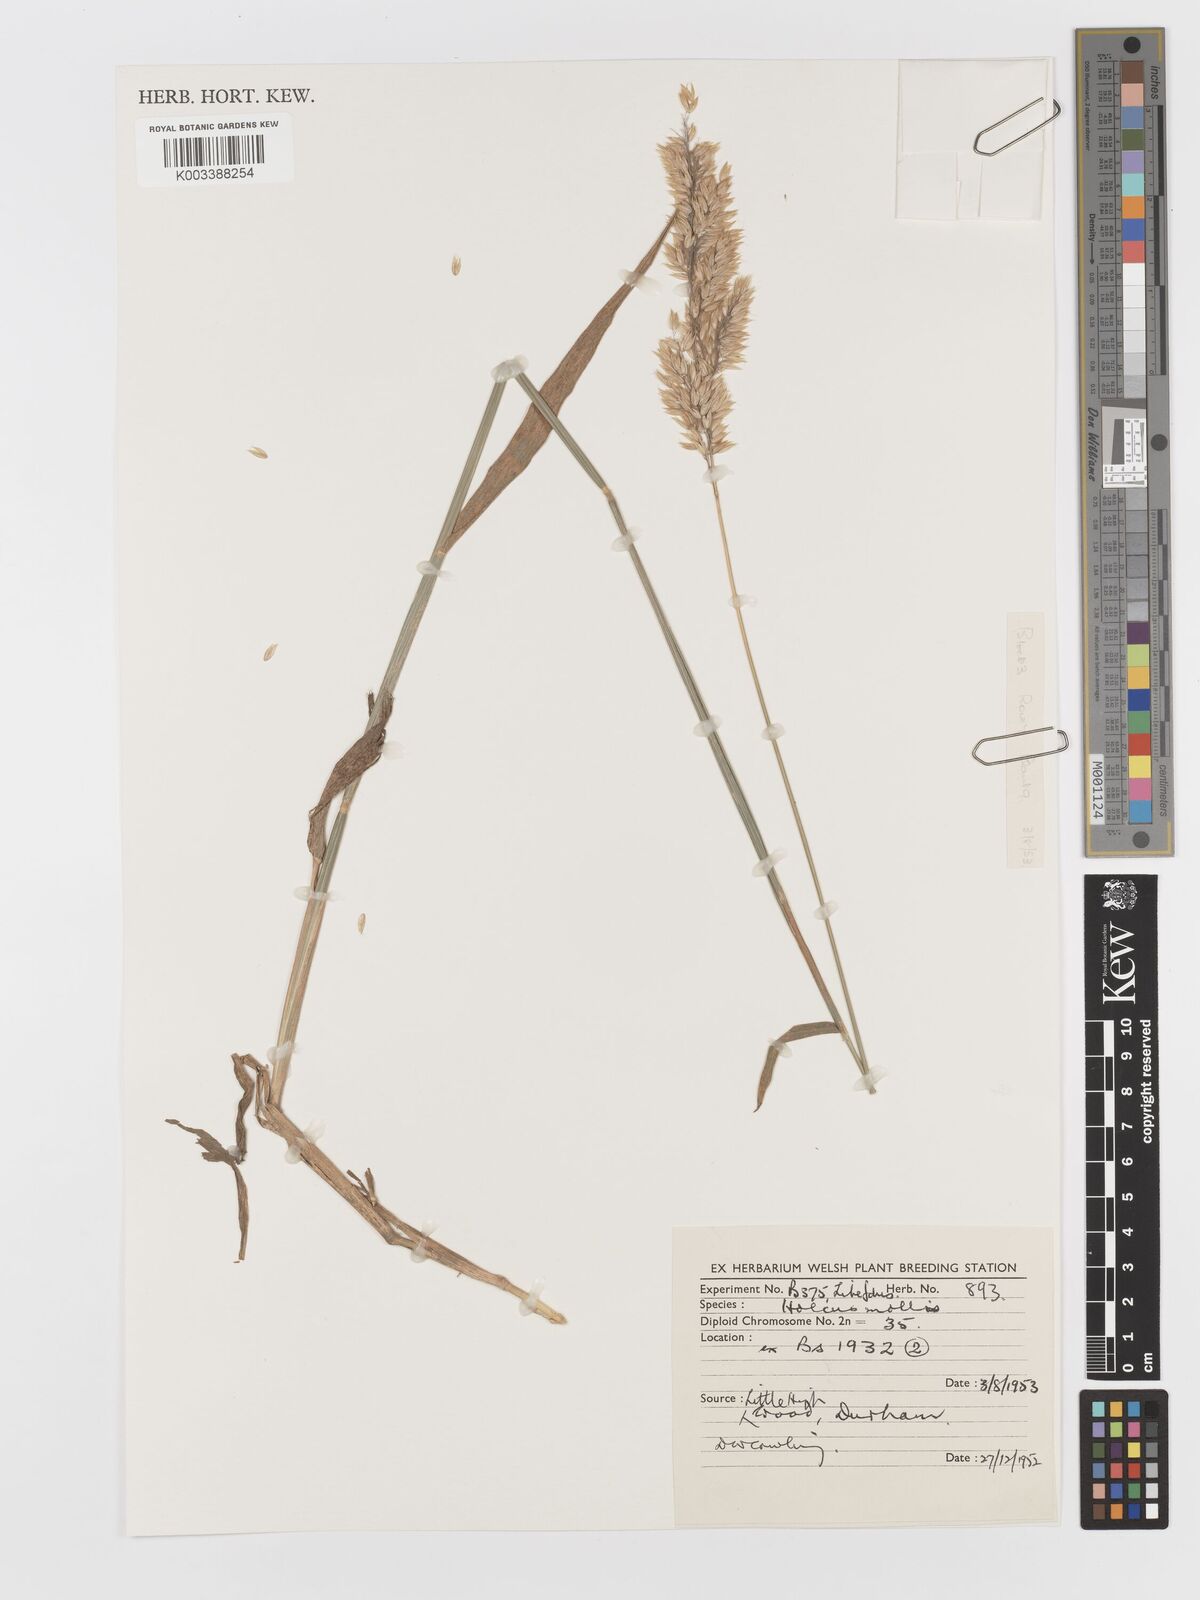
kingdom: Plantae
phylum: Tracheophyta
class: Liliopsida
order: Poales
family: Poaceae
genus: Holcus
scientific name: Holcus mollis
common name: Creeping velvetgrass
